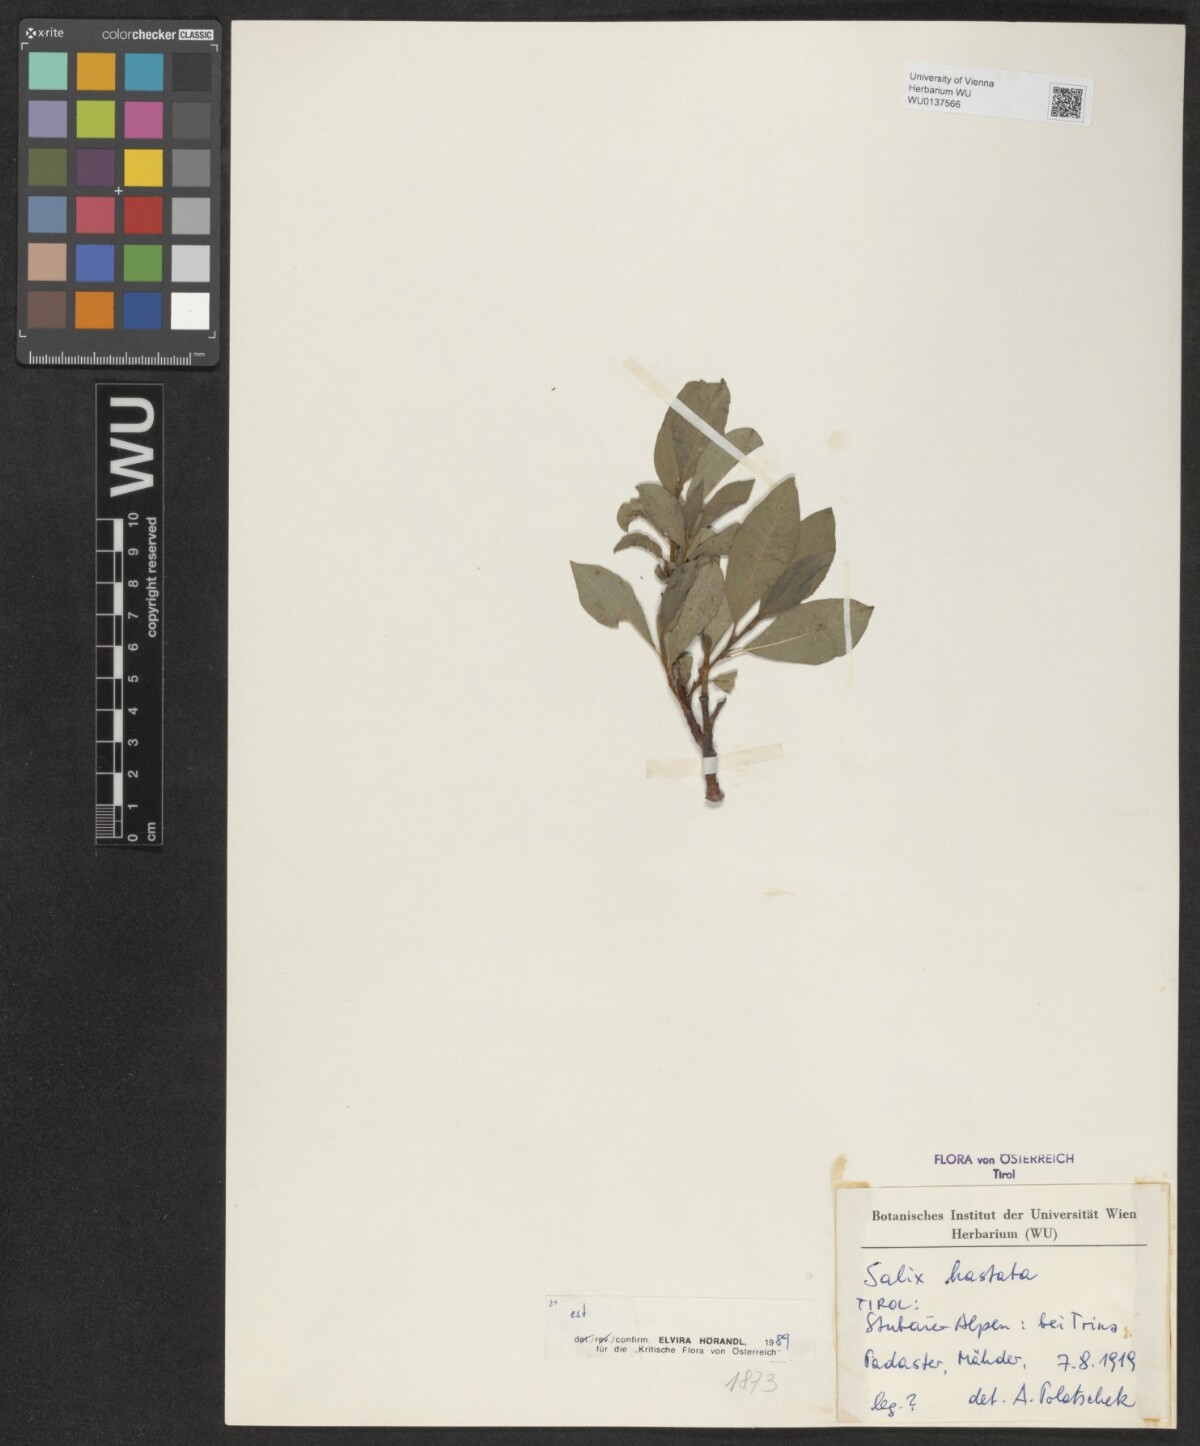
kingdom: Plantae
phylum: Tracheophyta
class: Magnoliopsida
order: Malpighiales
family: Salicaceae
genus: Salix
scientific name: Salix hastata
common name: Halberd willow
